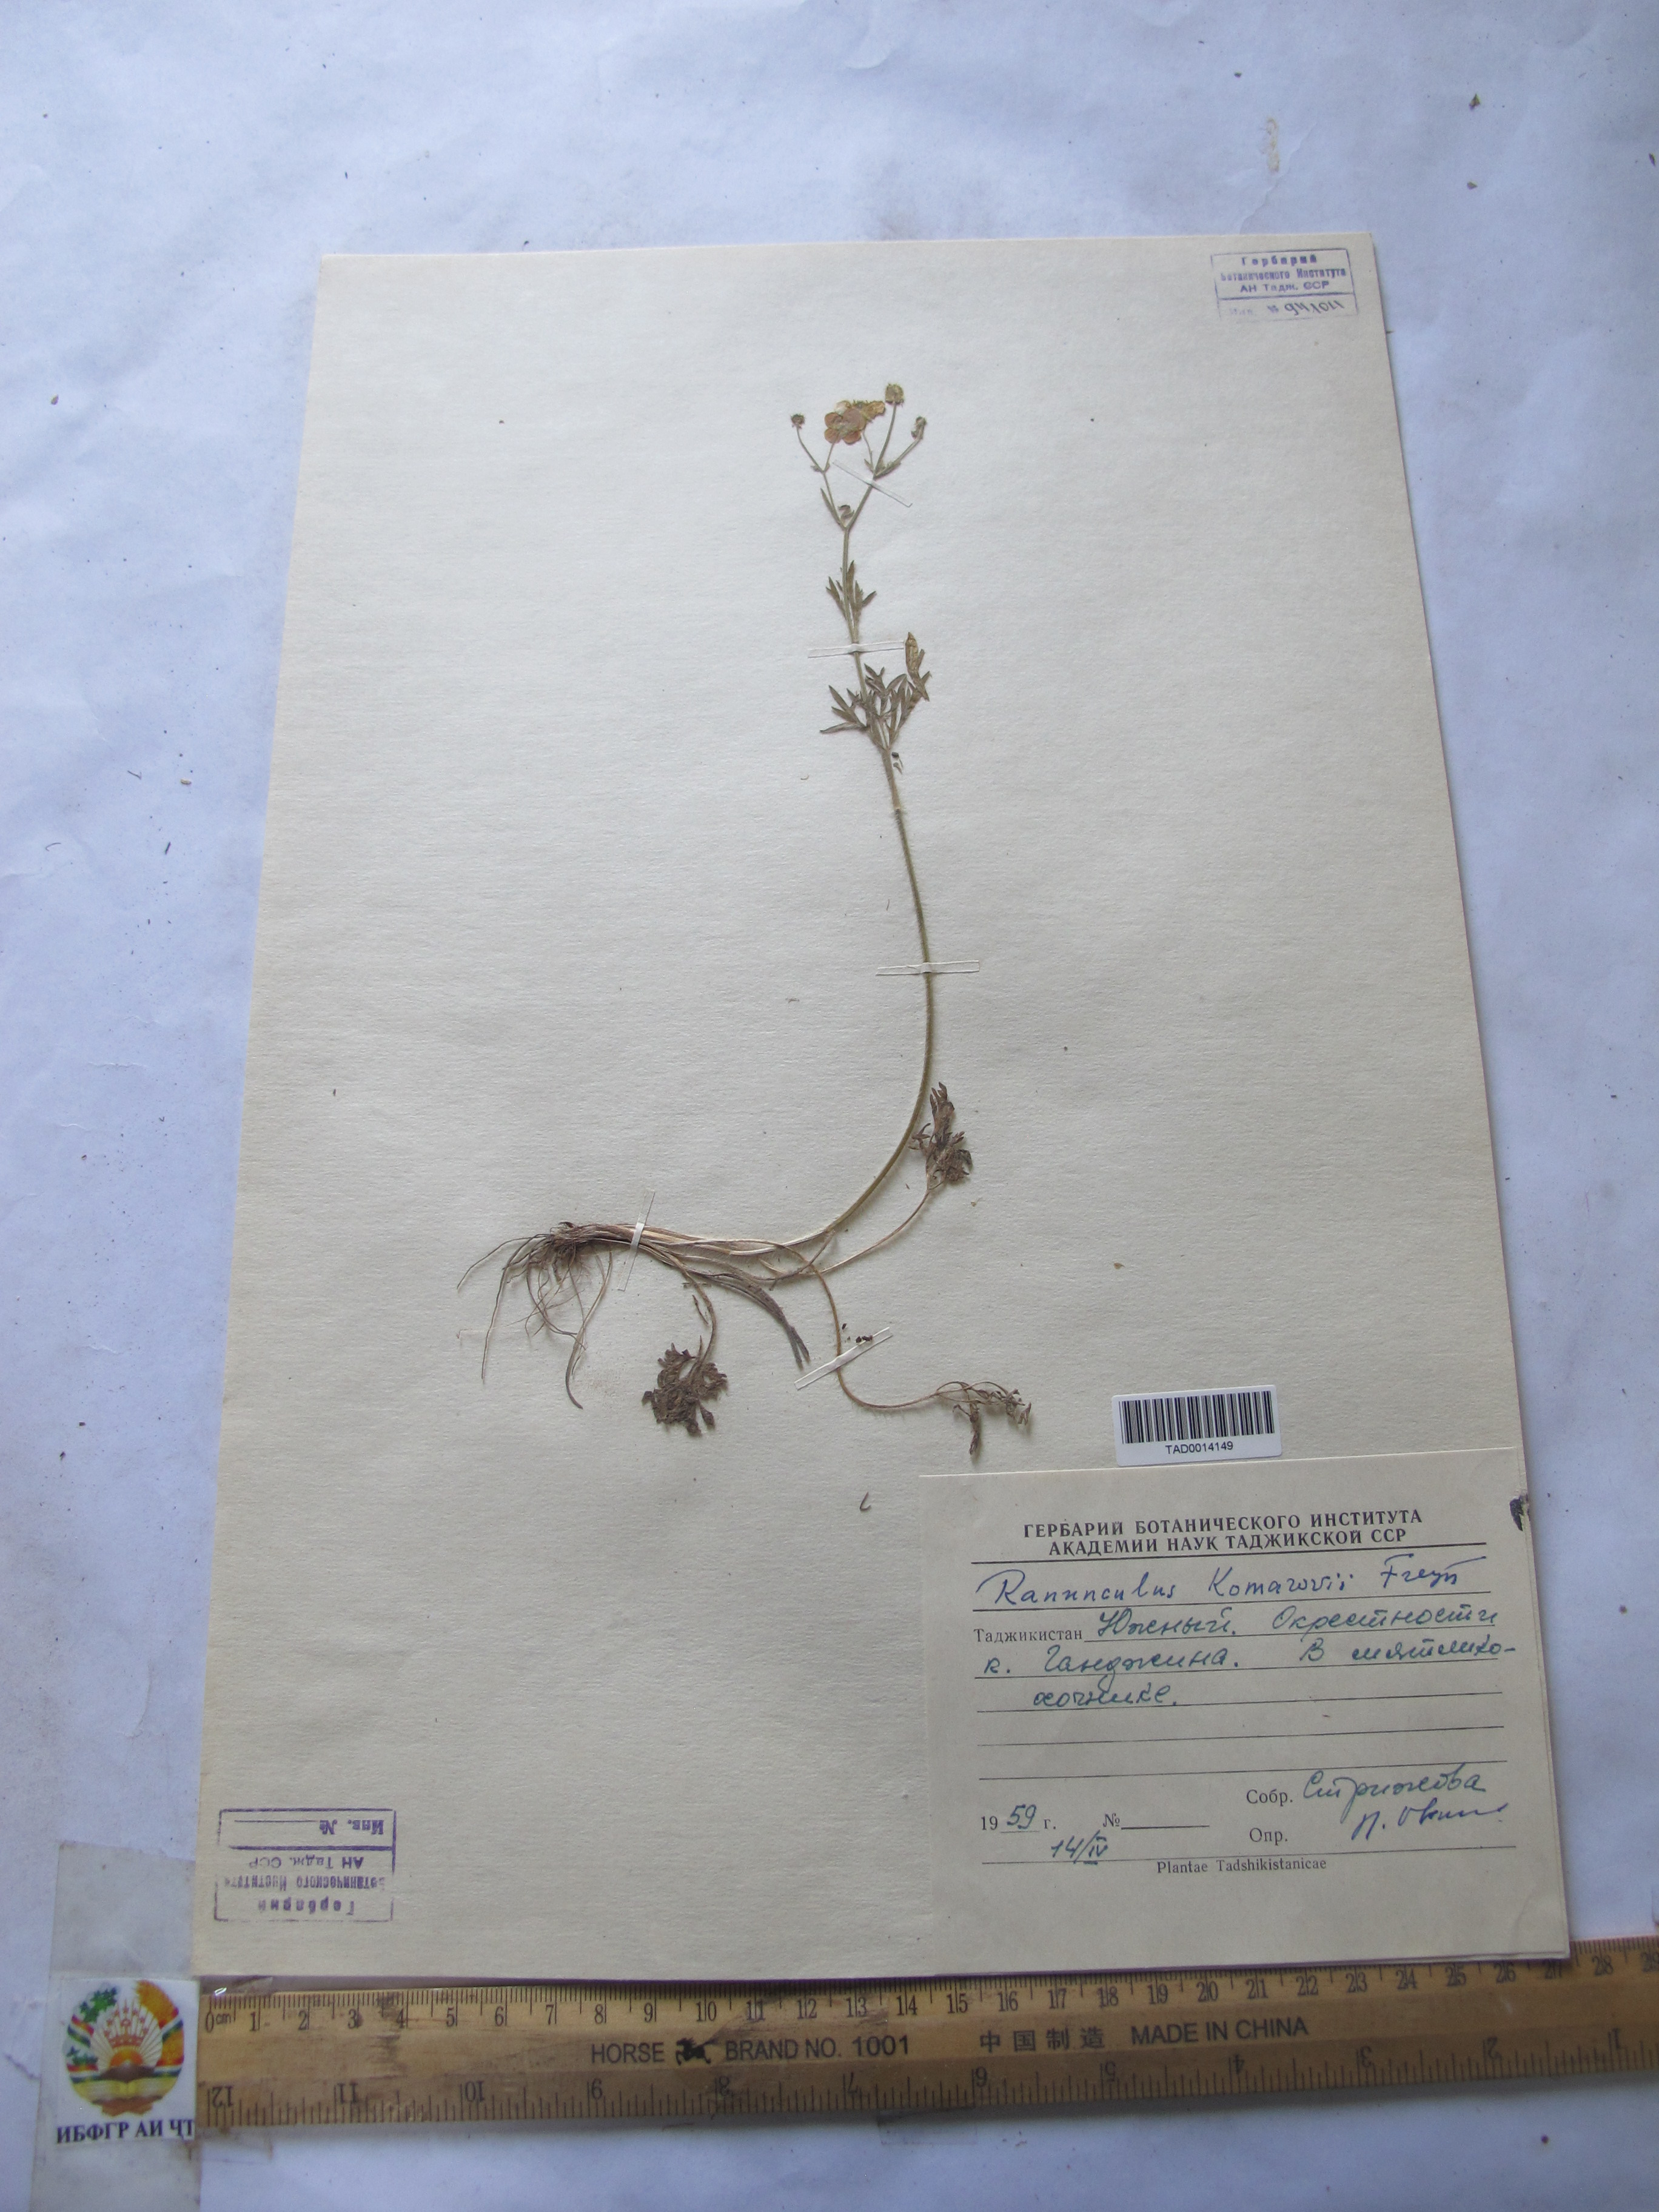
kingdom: Plantae
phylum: Tracheophyta
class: Magnoliopsida
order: Ranunculales
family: Ranunculaceae
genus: Ranunculus
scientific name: Ranunculus komarovii
